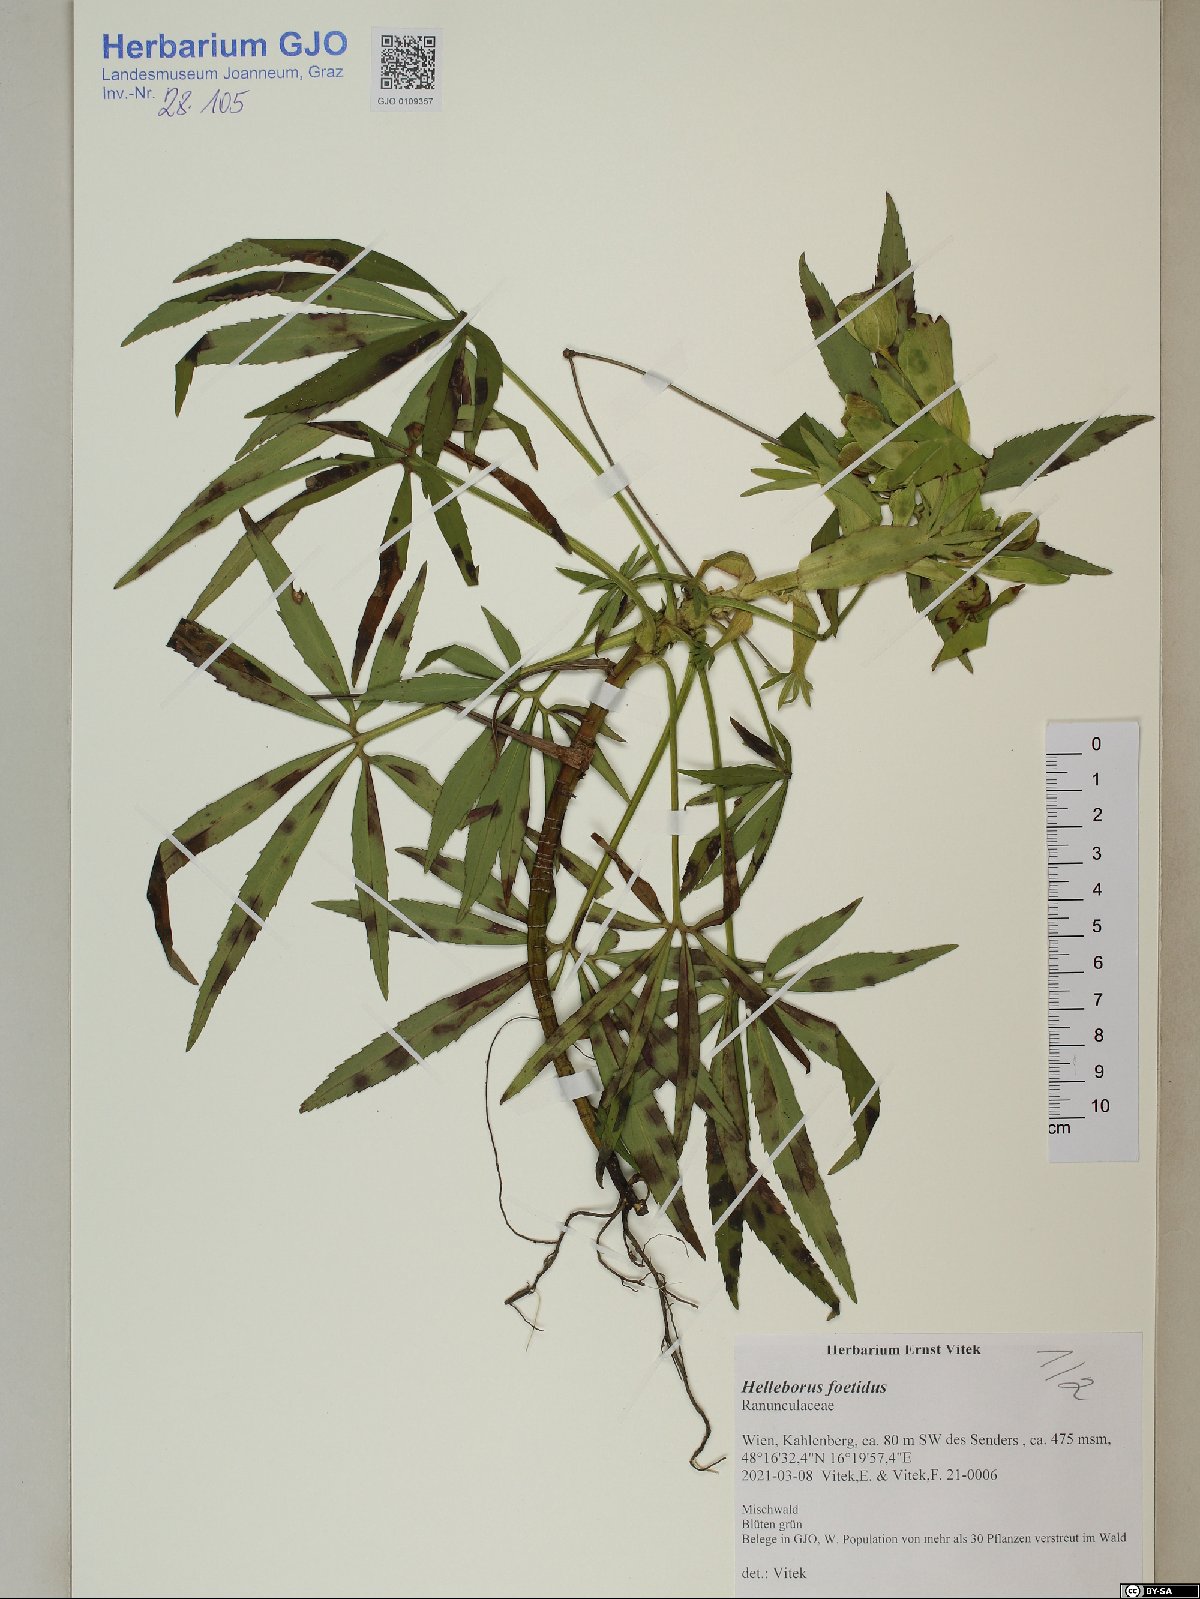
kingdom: Plantae
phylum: Tracheophyta
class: Magnoliopsida
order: Ranunculales
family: Ranunculaceae
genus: Helleborus
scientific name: Helleborus foetidus
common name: Stinking hellebore
